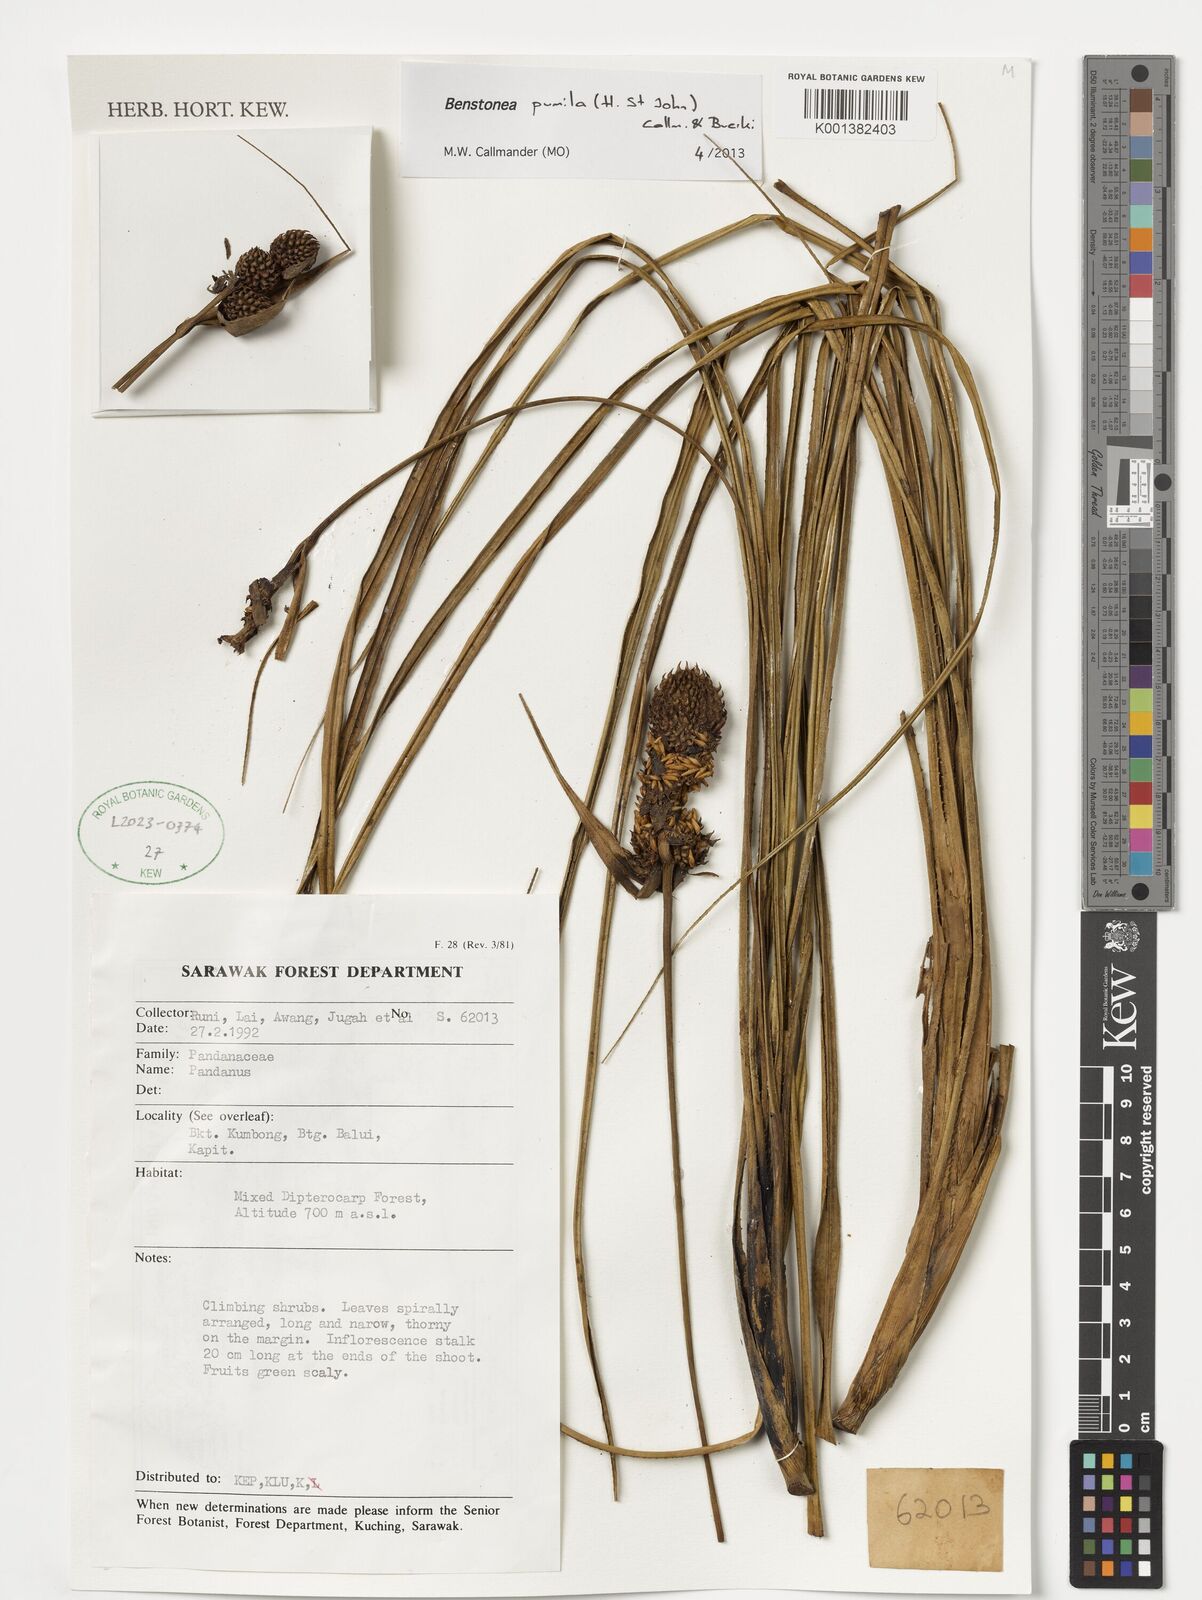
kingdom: Plantae
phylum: Tracheophyta
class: Liliopsida
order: Pandanales
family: Pandanaceae
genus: Benstonea
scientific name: Benstonea pumila
